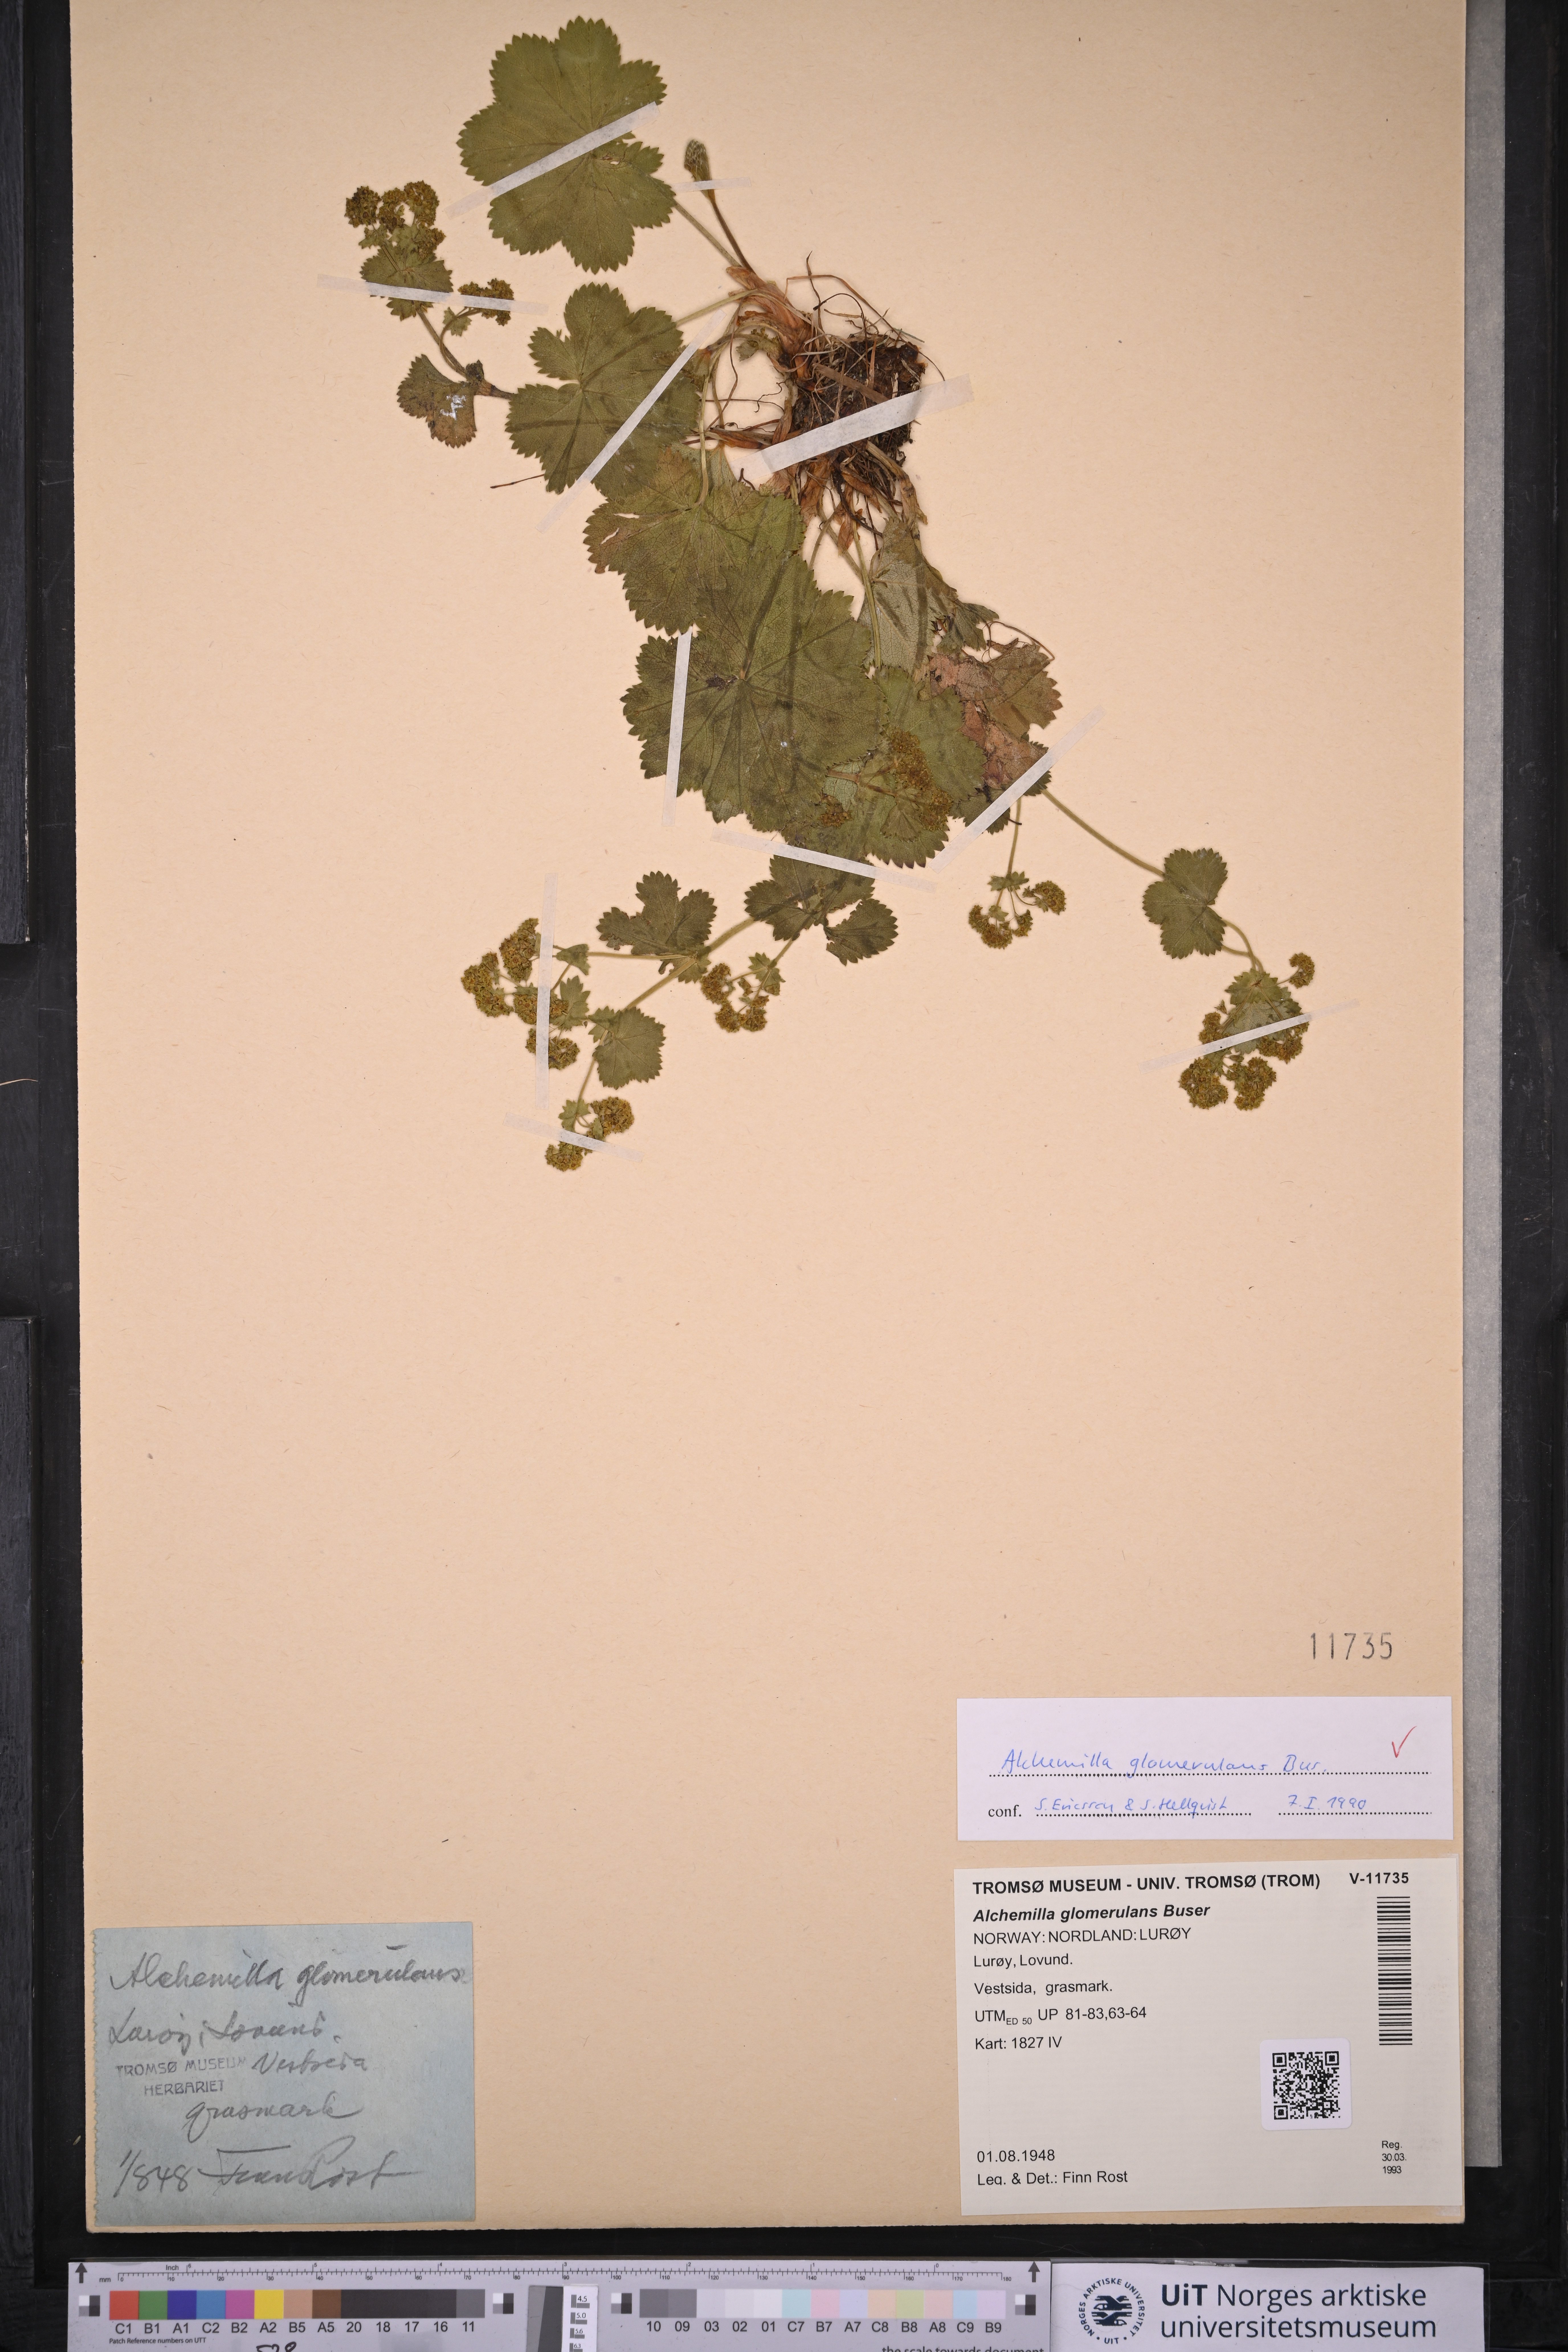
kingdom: Plantae
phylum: Tracheophyta
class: Magnoliopsida
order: Rosales
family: Rosaceae
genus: Alchemilla
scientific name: Alchemilla glomerulans
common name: Clustered lady's mantle
